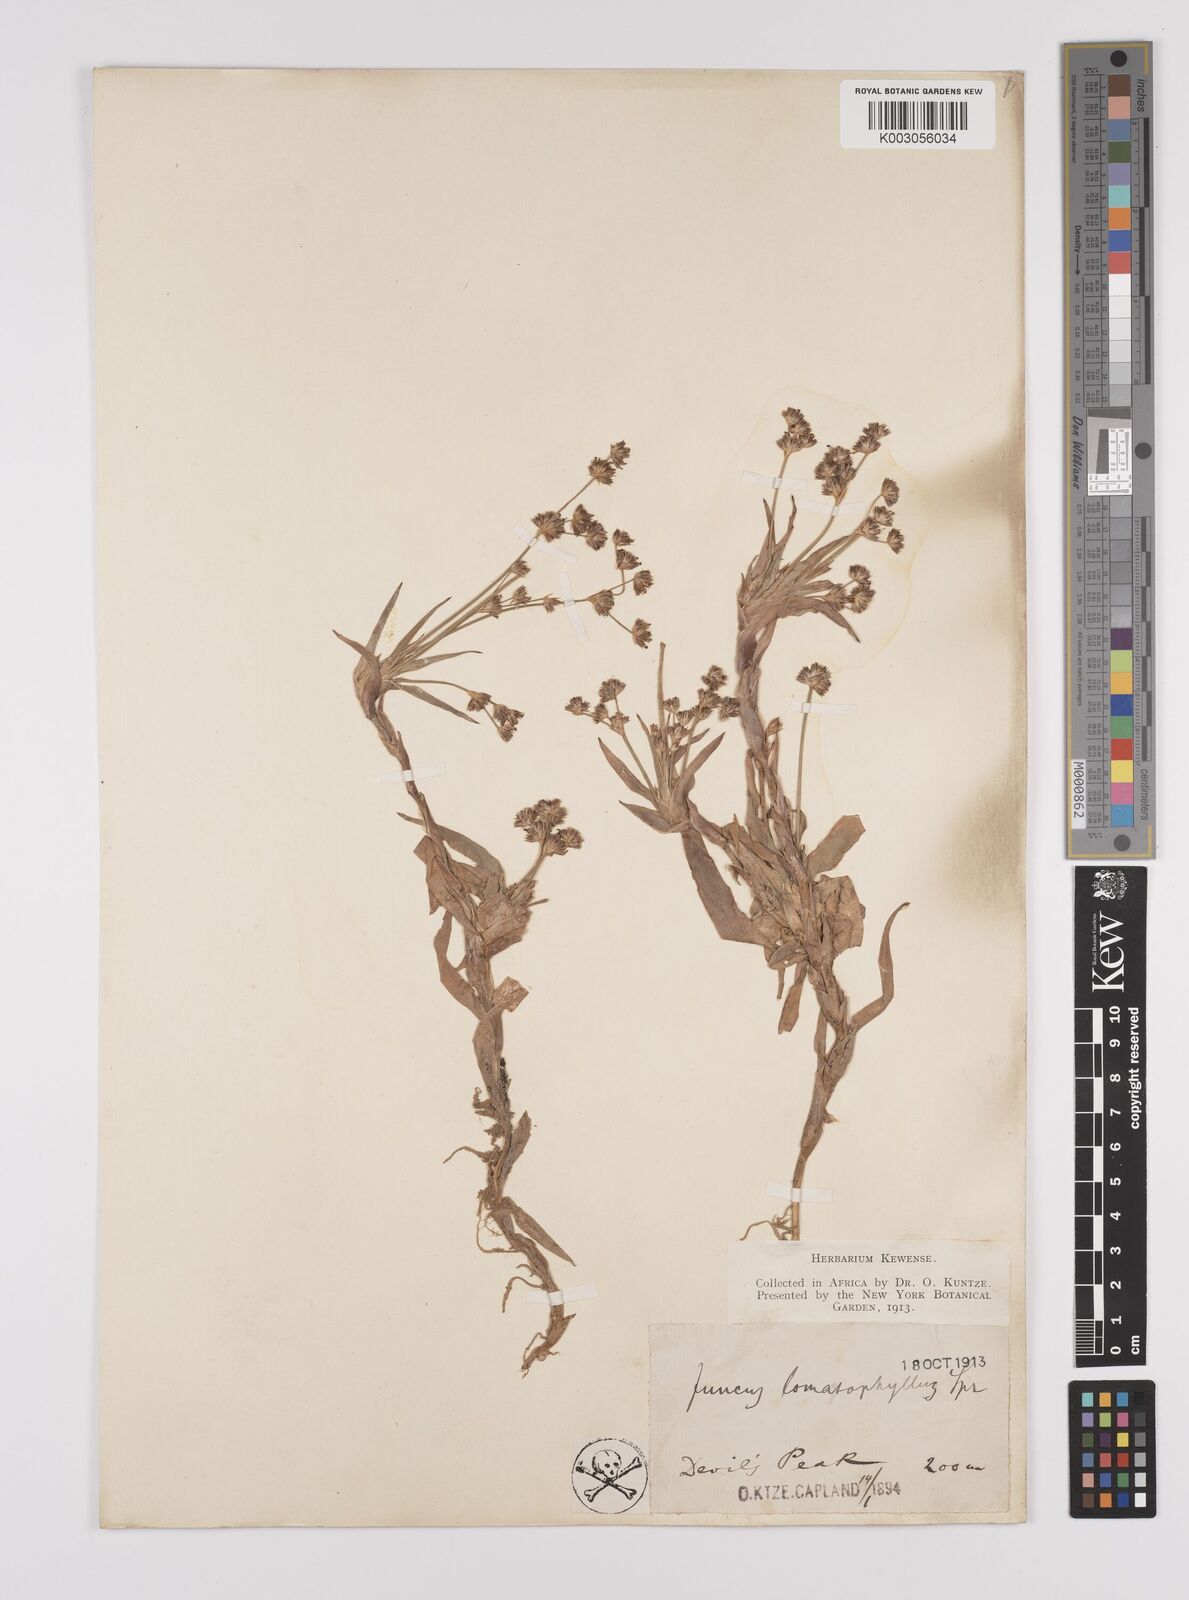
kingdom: Plantae
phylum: Tracheophyta
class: Liliopsida
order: Poales
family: Juncaceae
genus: Juncus
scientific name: Juncus lomatophyllus
